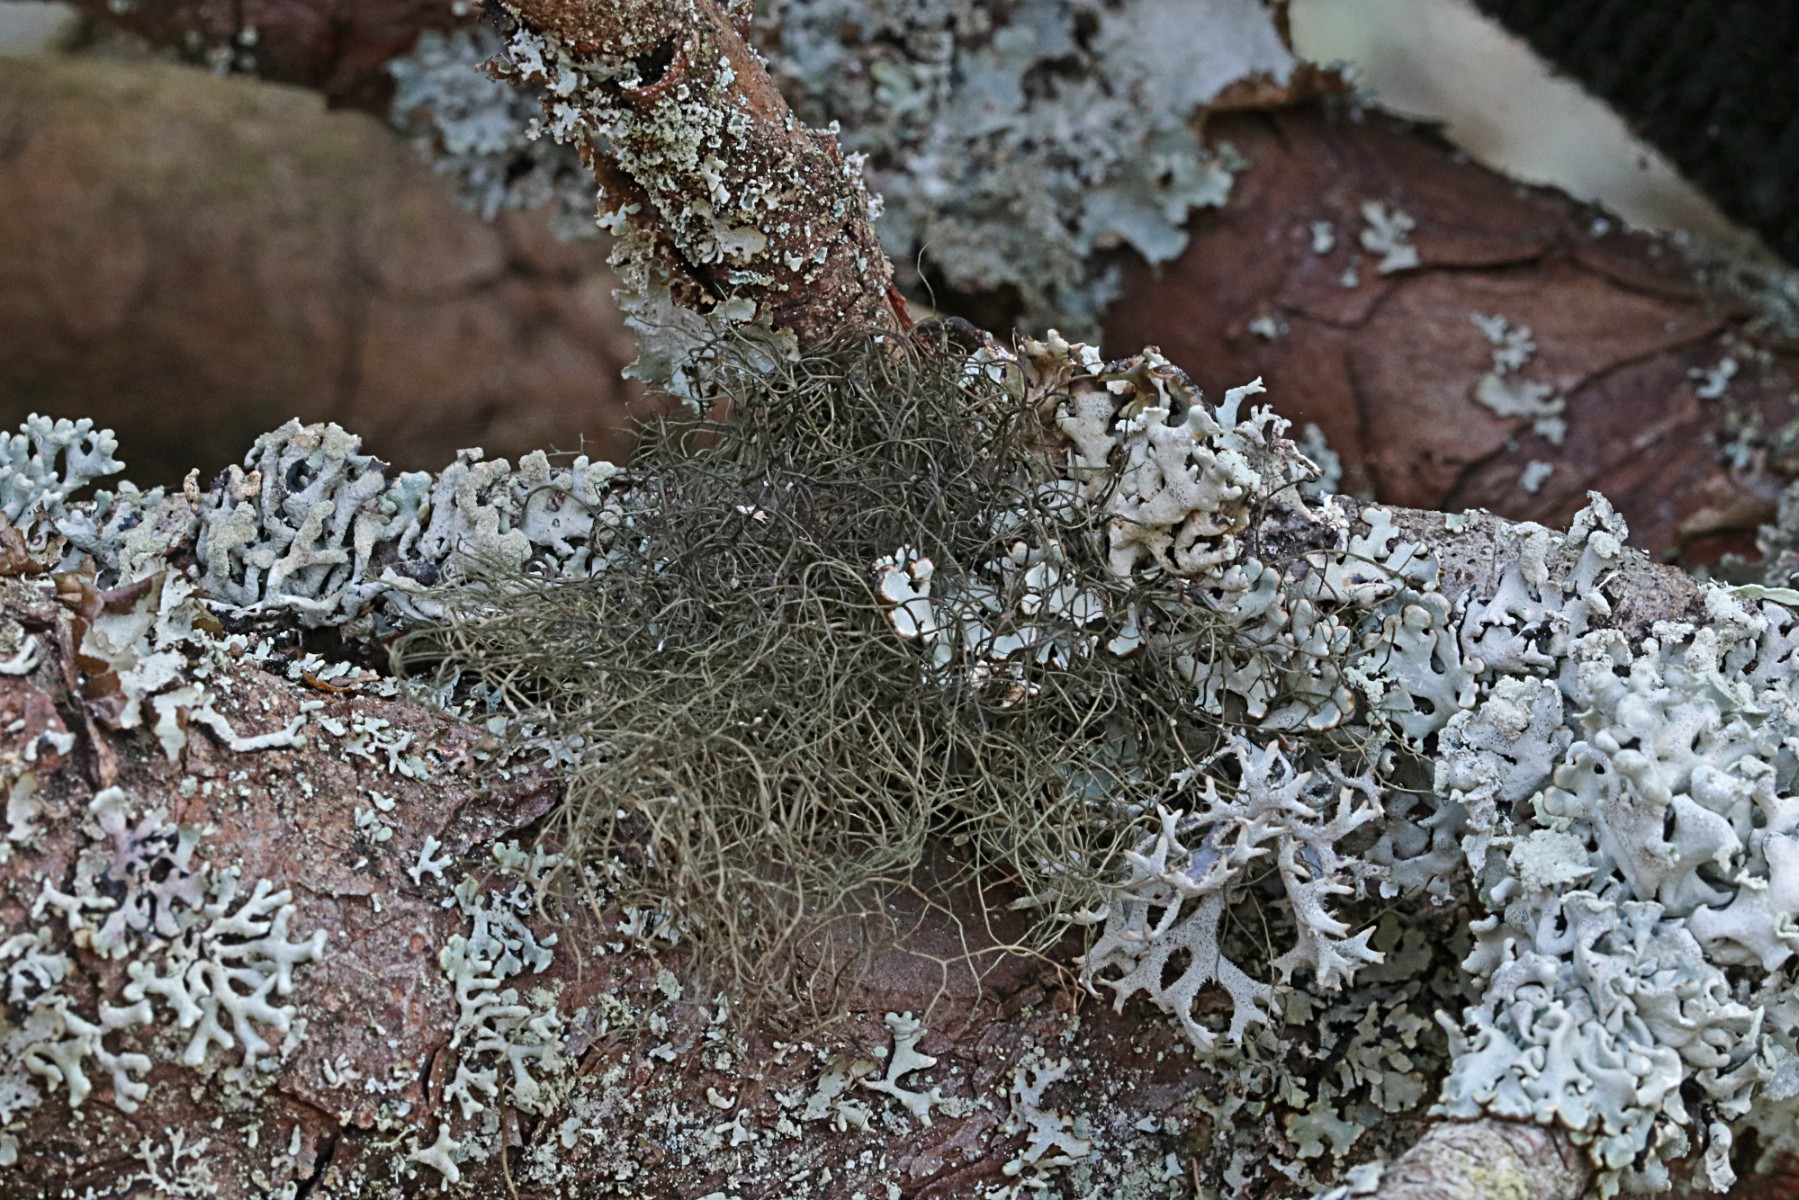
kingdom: Fungi
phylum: Ascomycota
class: Lecanoromycetes
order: Lecanorales
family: Parmeliaceae
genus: Bryoria
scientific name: Bryoria fuscescens
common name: almindelig mankelav
